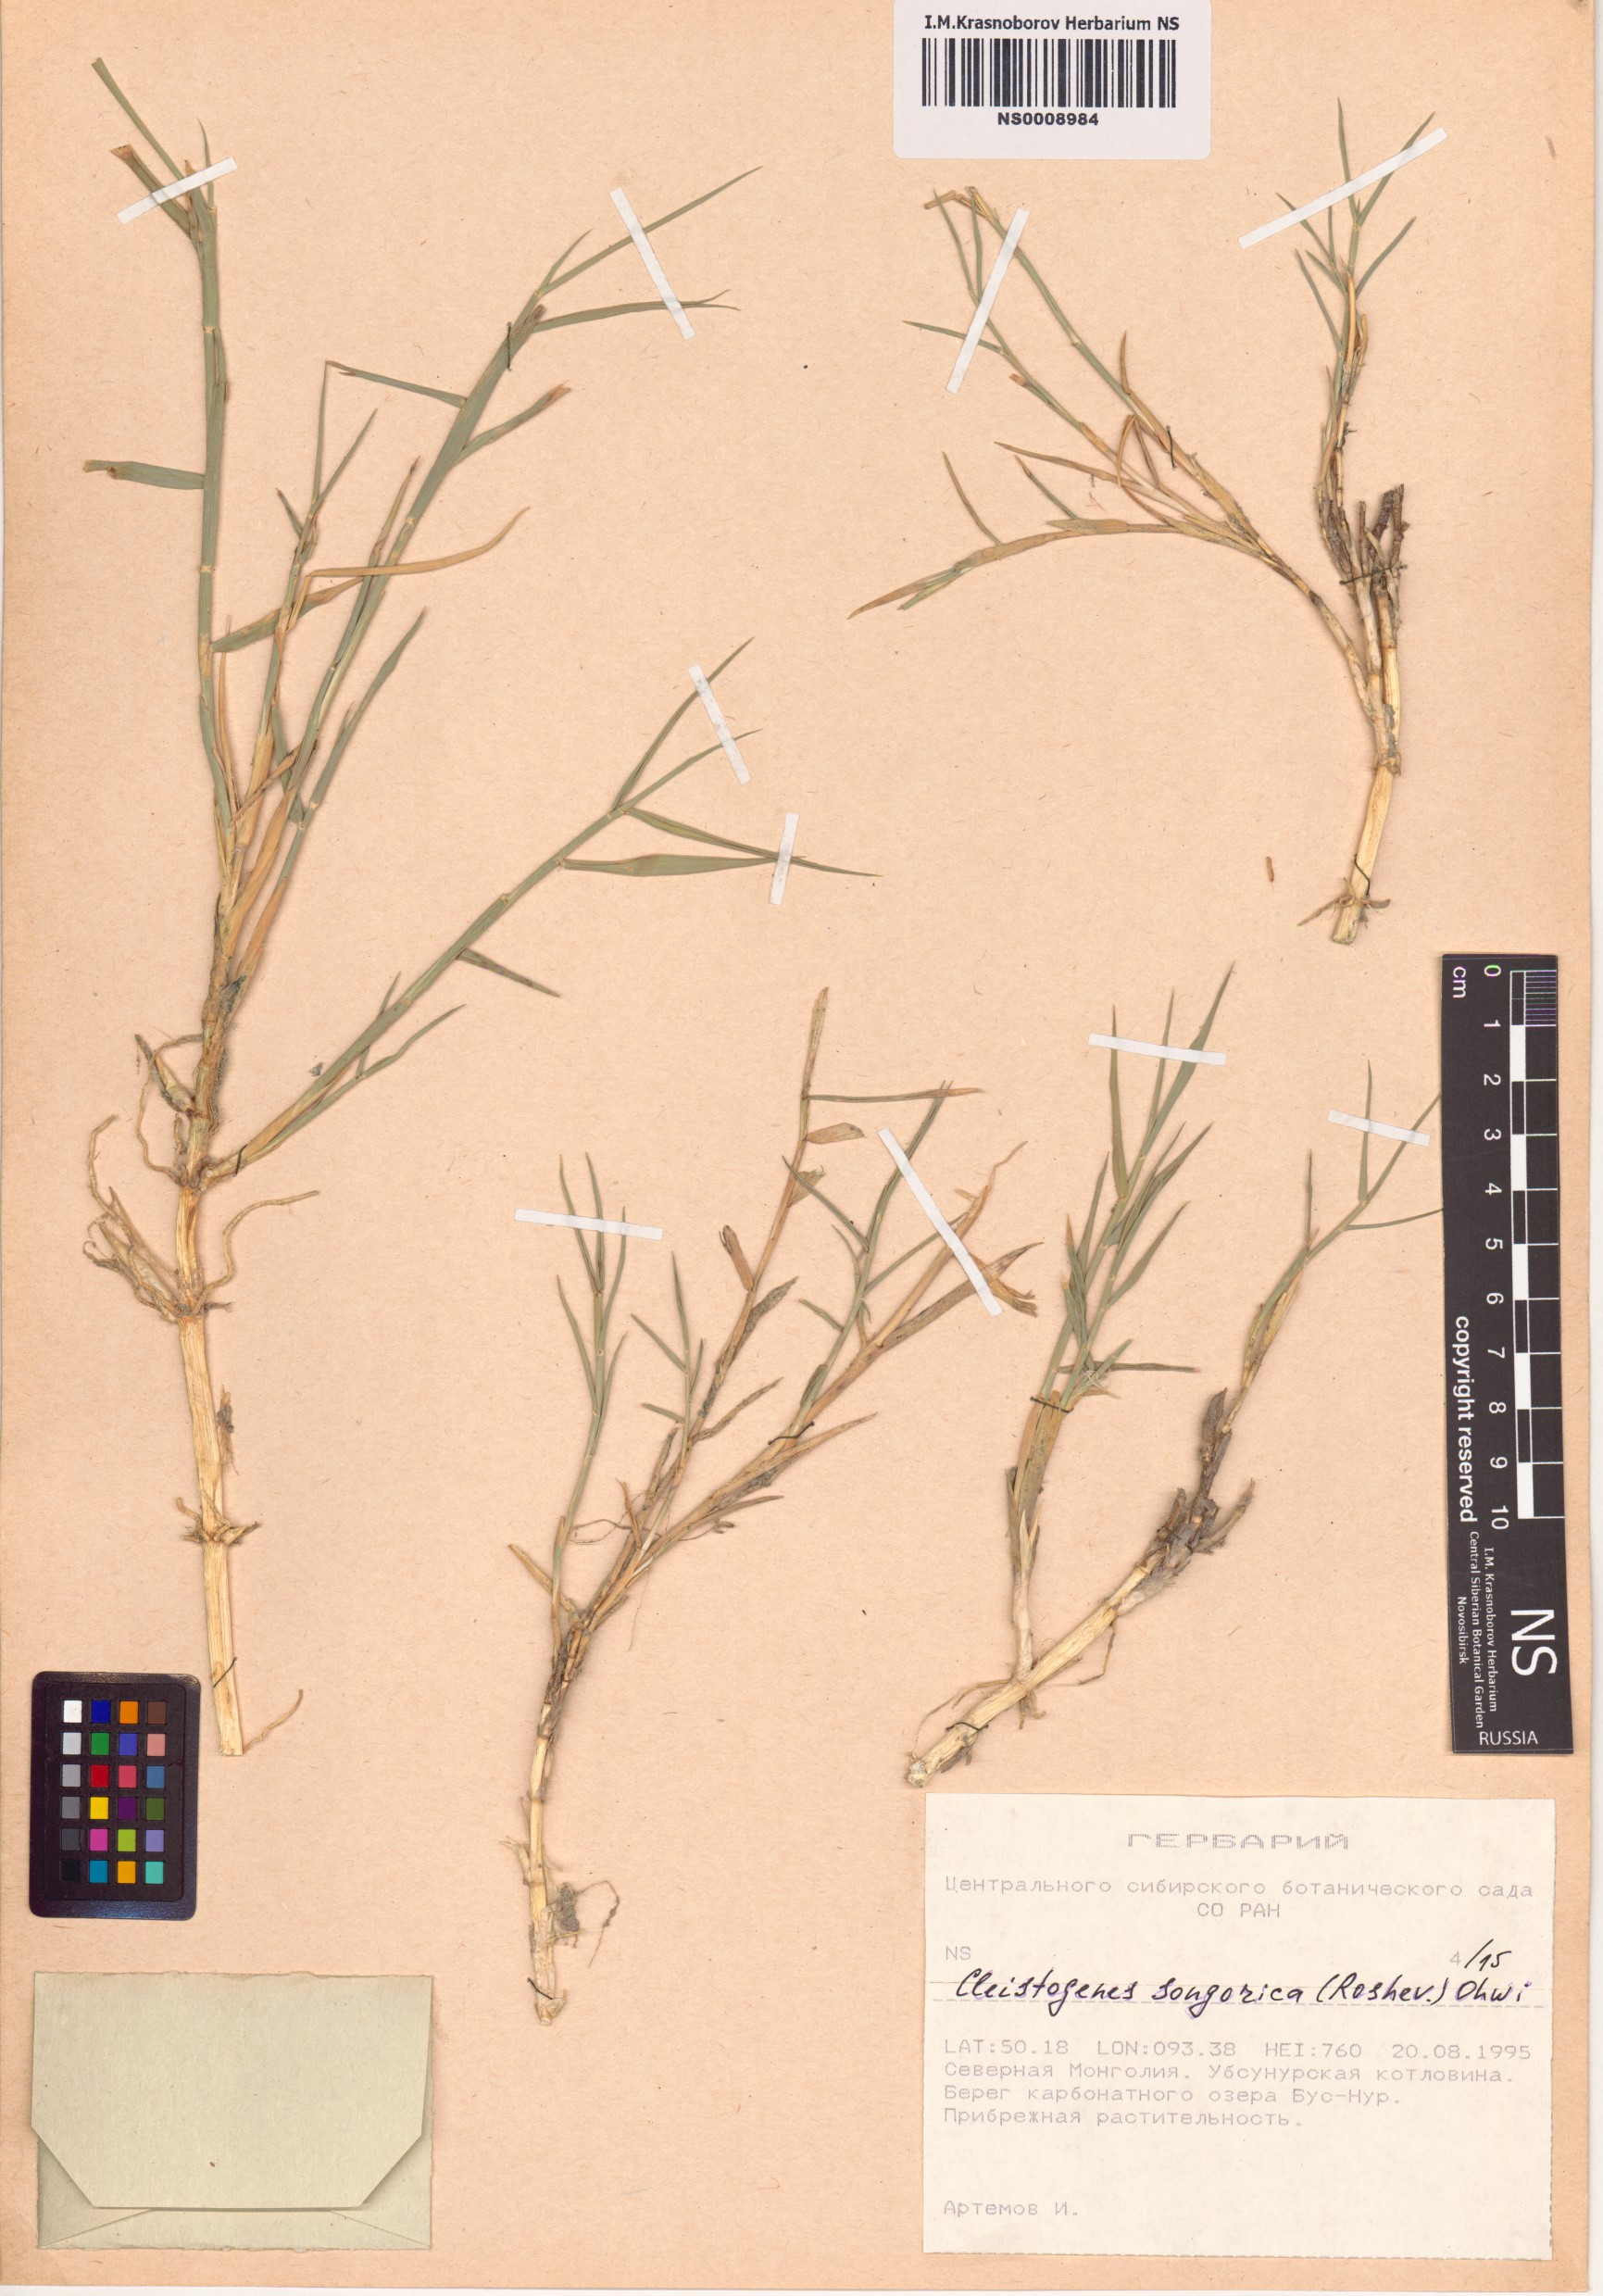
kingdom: Plantae
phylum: Tracheophyta
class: Liliopsida
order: Poales
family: Poaceae
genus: Cleistogenes
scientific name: Cleistogenes songorica
